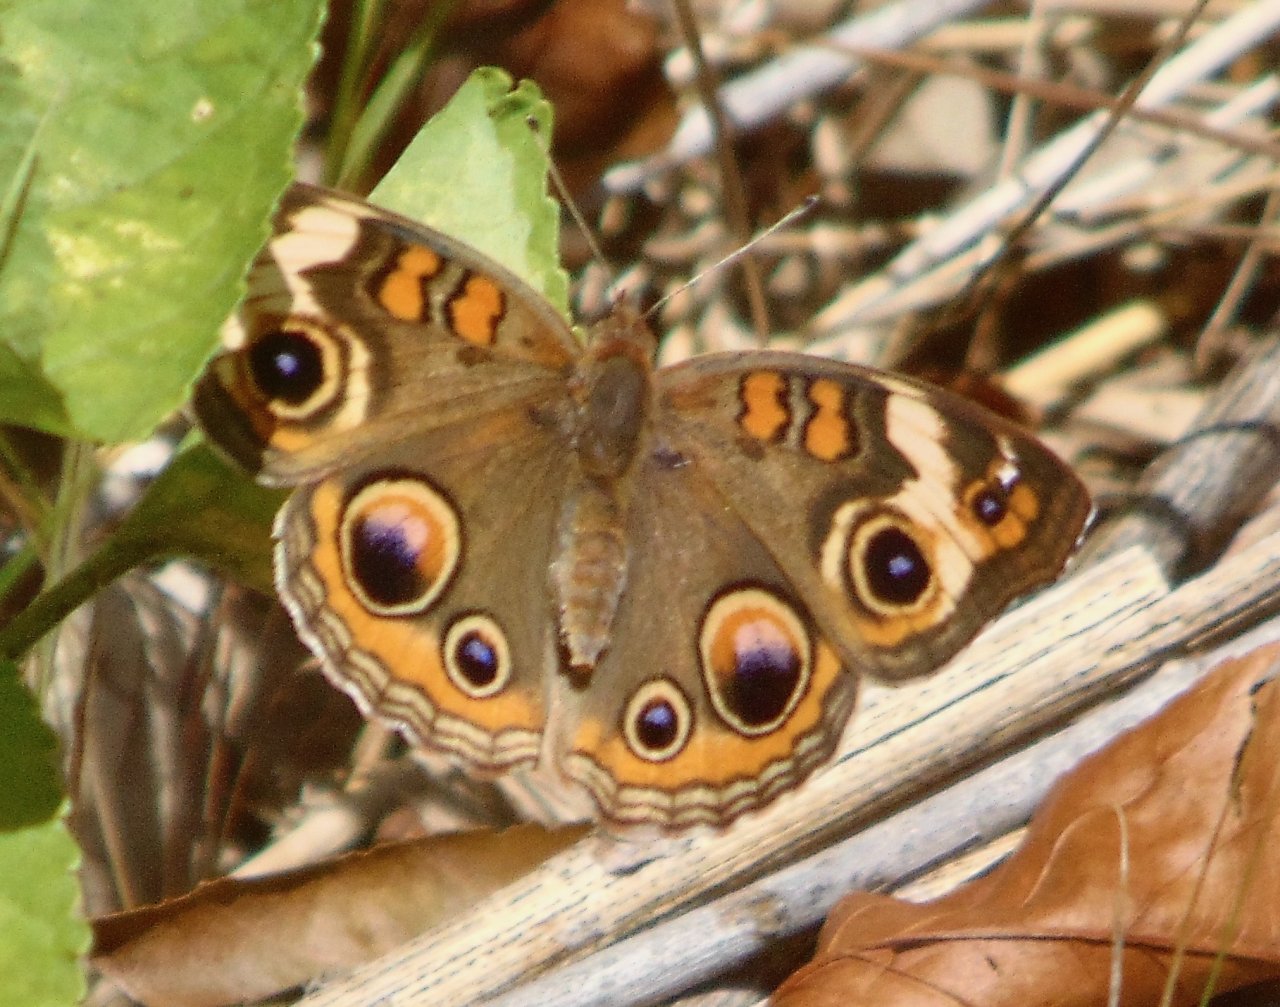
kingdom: Animalia
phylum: Arthropoda
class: Insecta
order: Lepidoptera
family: Nymphalidae
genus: Junonia
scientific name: Junonia coenia
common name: Common Buckeye
